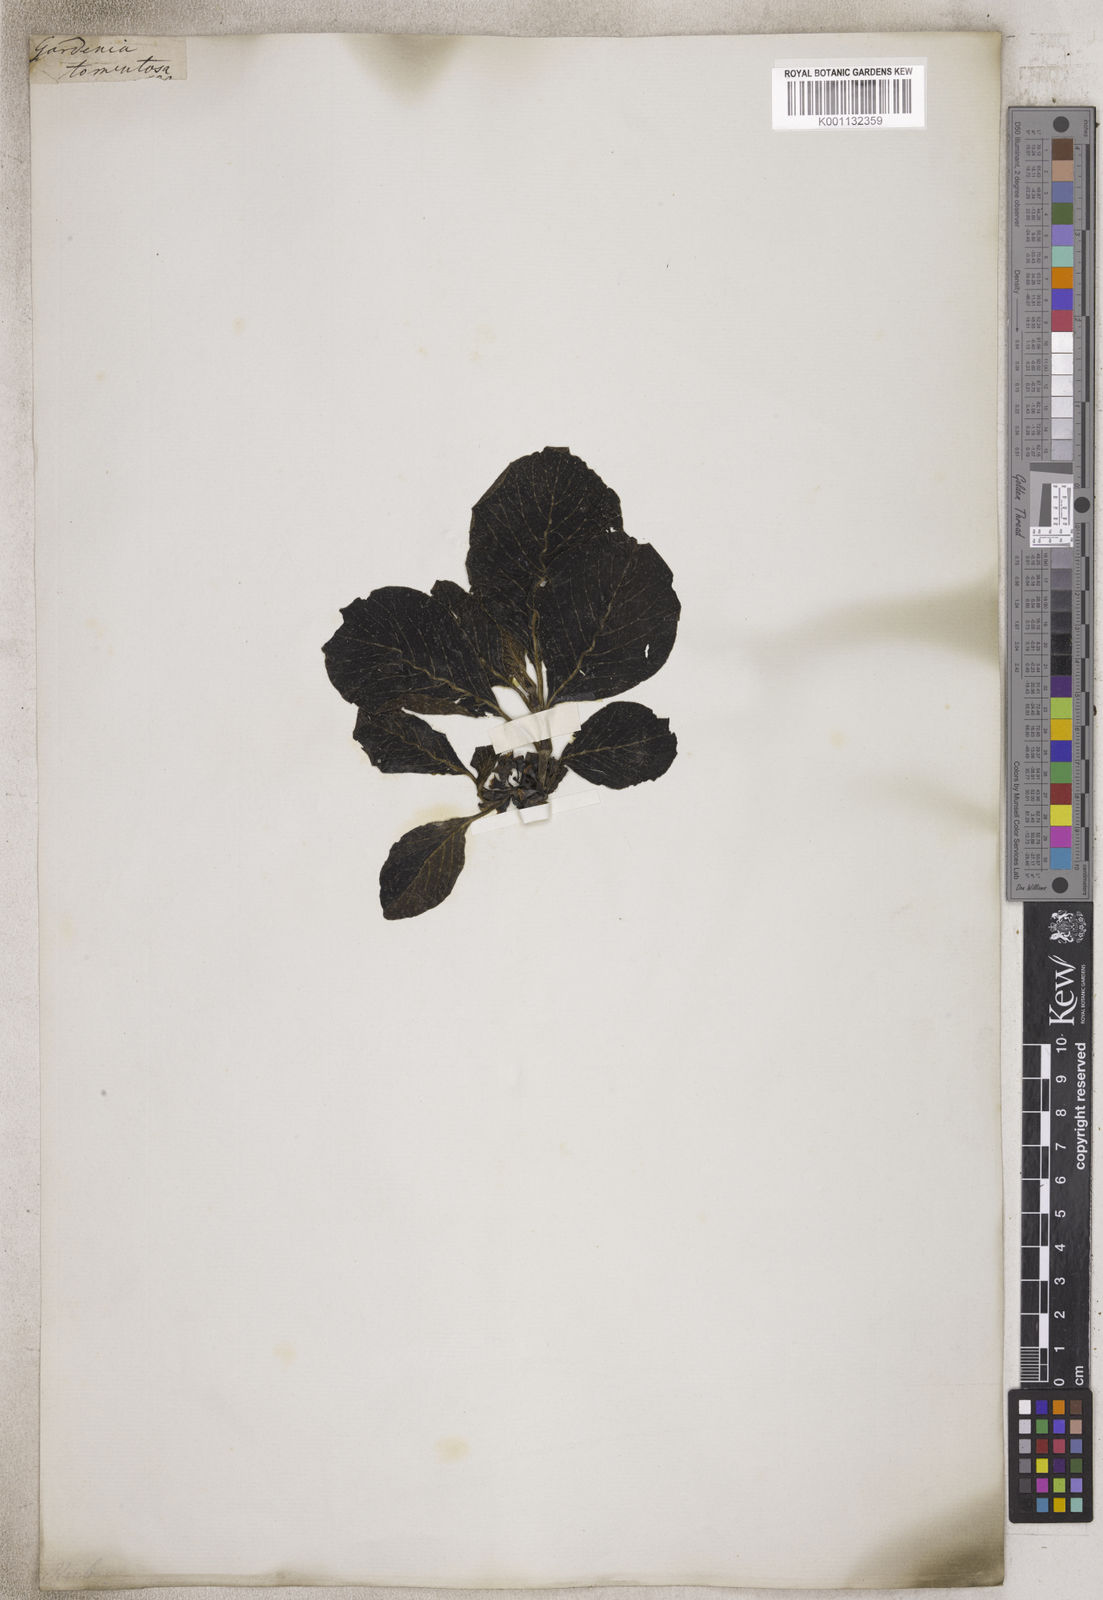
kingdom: Plantae
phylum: Tracheophyta
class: Magnoliopsida
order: Gentianales
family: Rubiaceae
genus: Gardenia
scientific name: Gardenia
